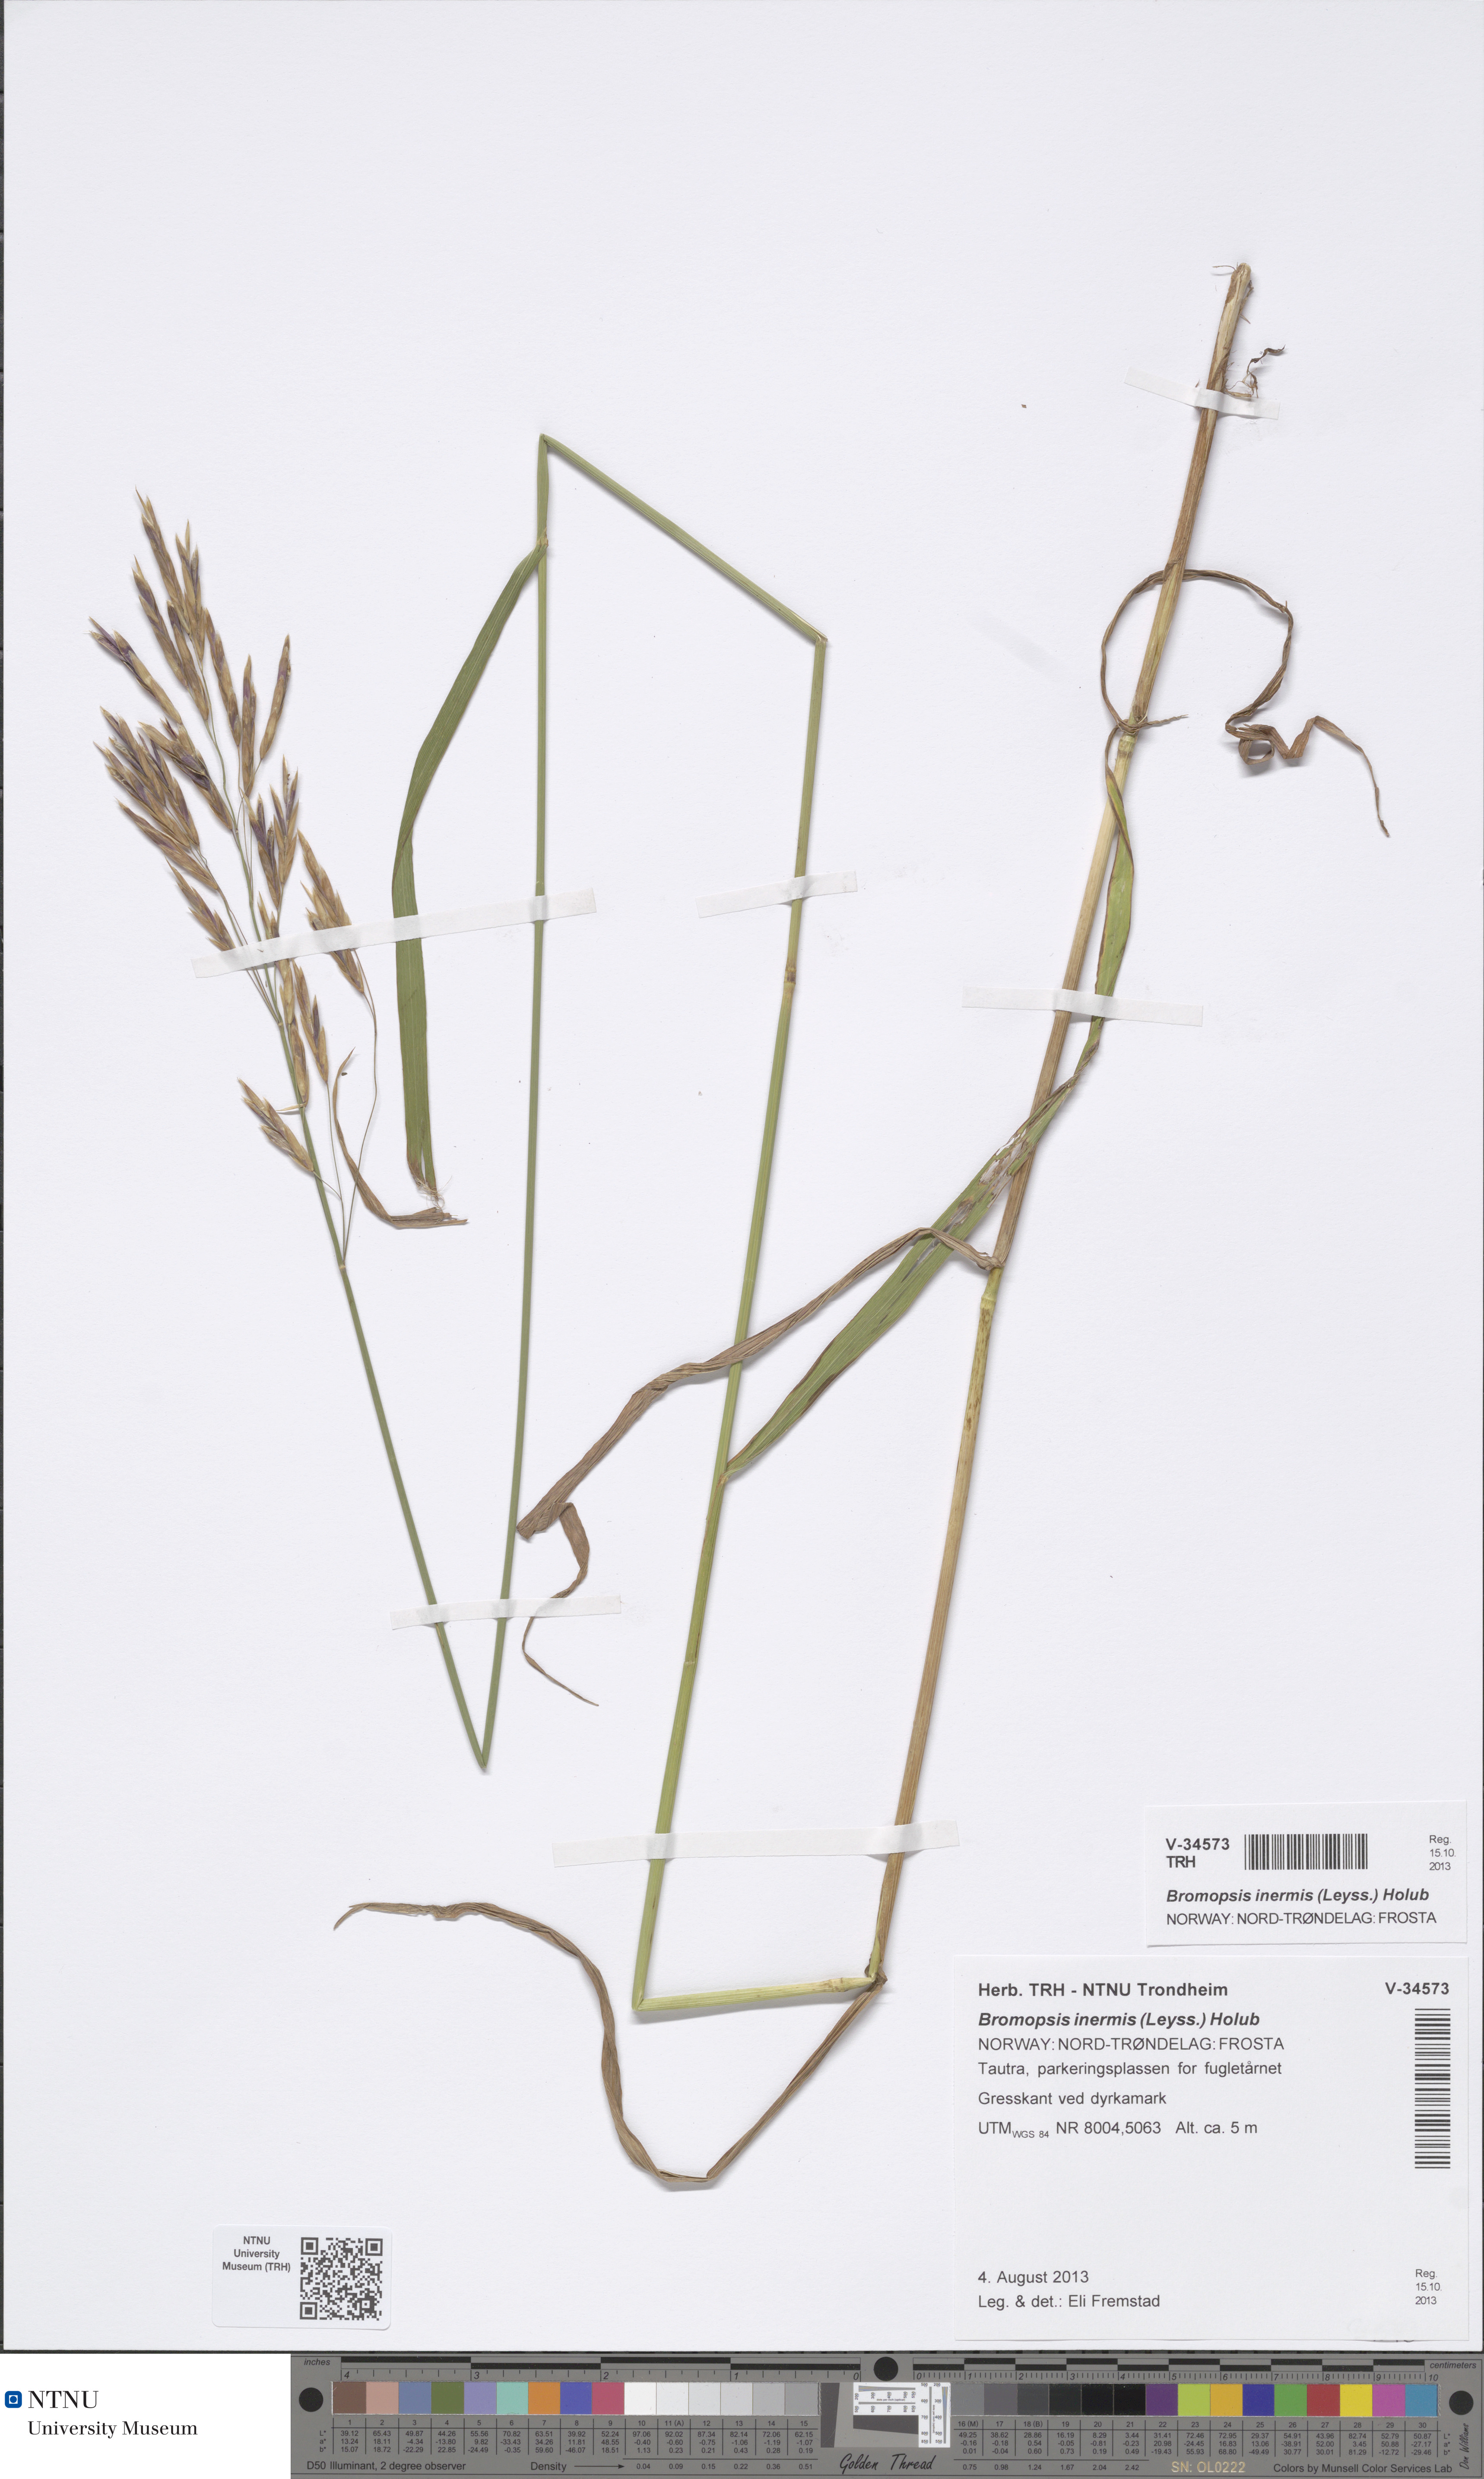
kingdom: Plantae
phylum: Tracheophyta
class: Liliopsida
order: Poales
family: Poaceae
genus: Bromus
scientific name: Bromus inermis
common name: Smooth brome
